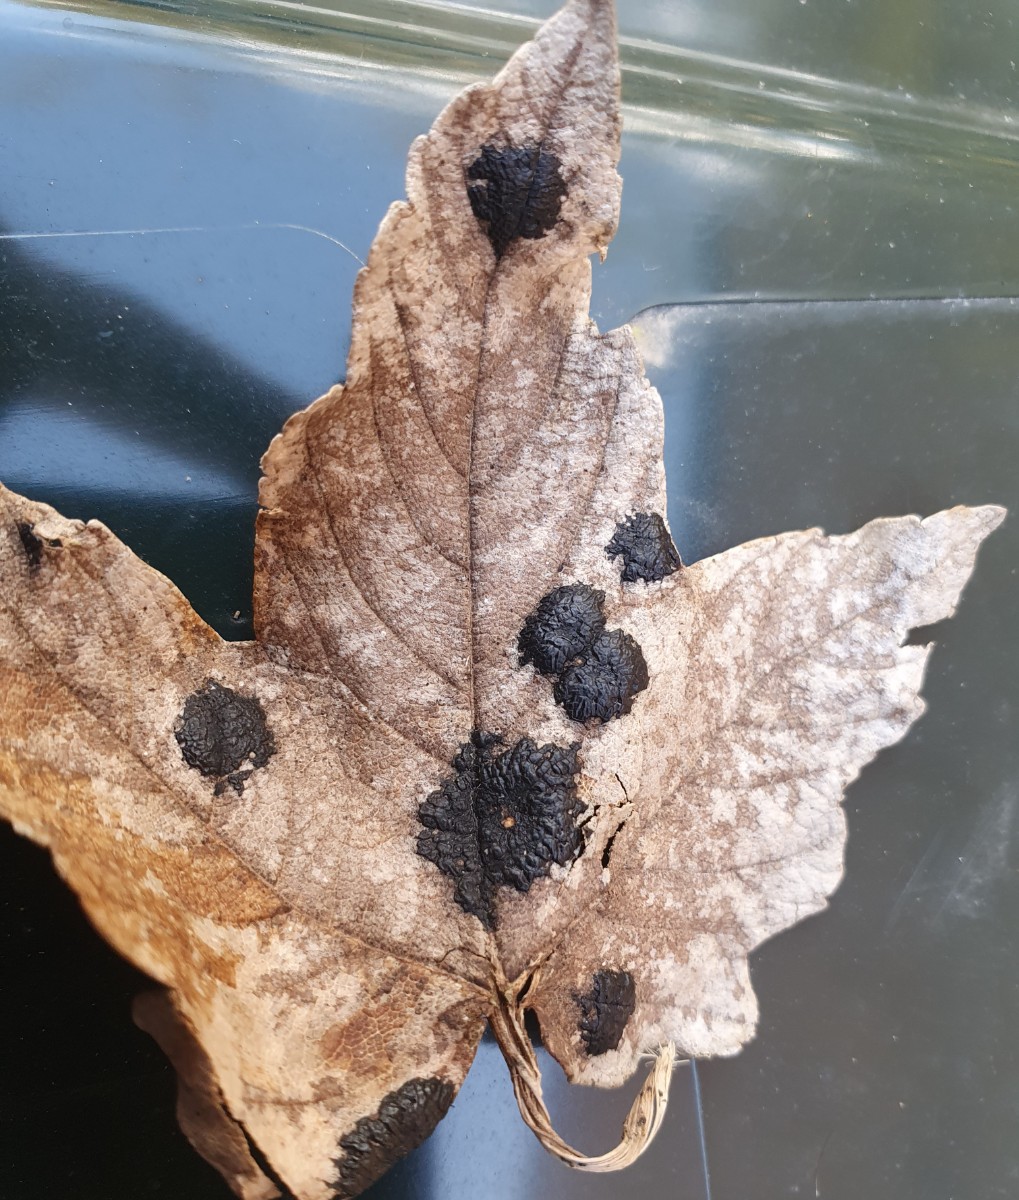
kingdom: Fungi
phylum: Ascomycota
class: Leotiomycetes
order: Rhytismatales
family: Rhytismataceae
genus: Rhytisma
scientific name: Rhytisma acerinum
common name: ahorn-rynkeplet
